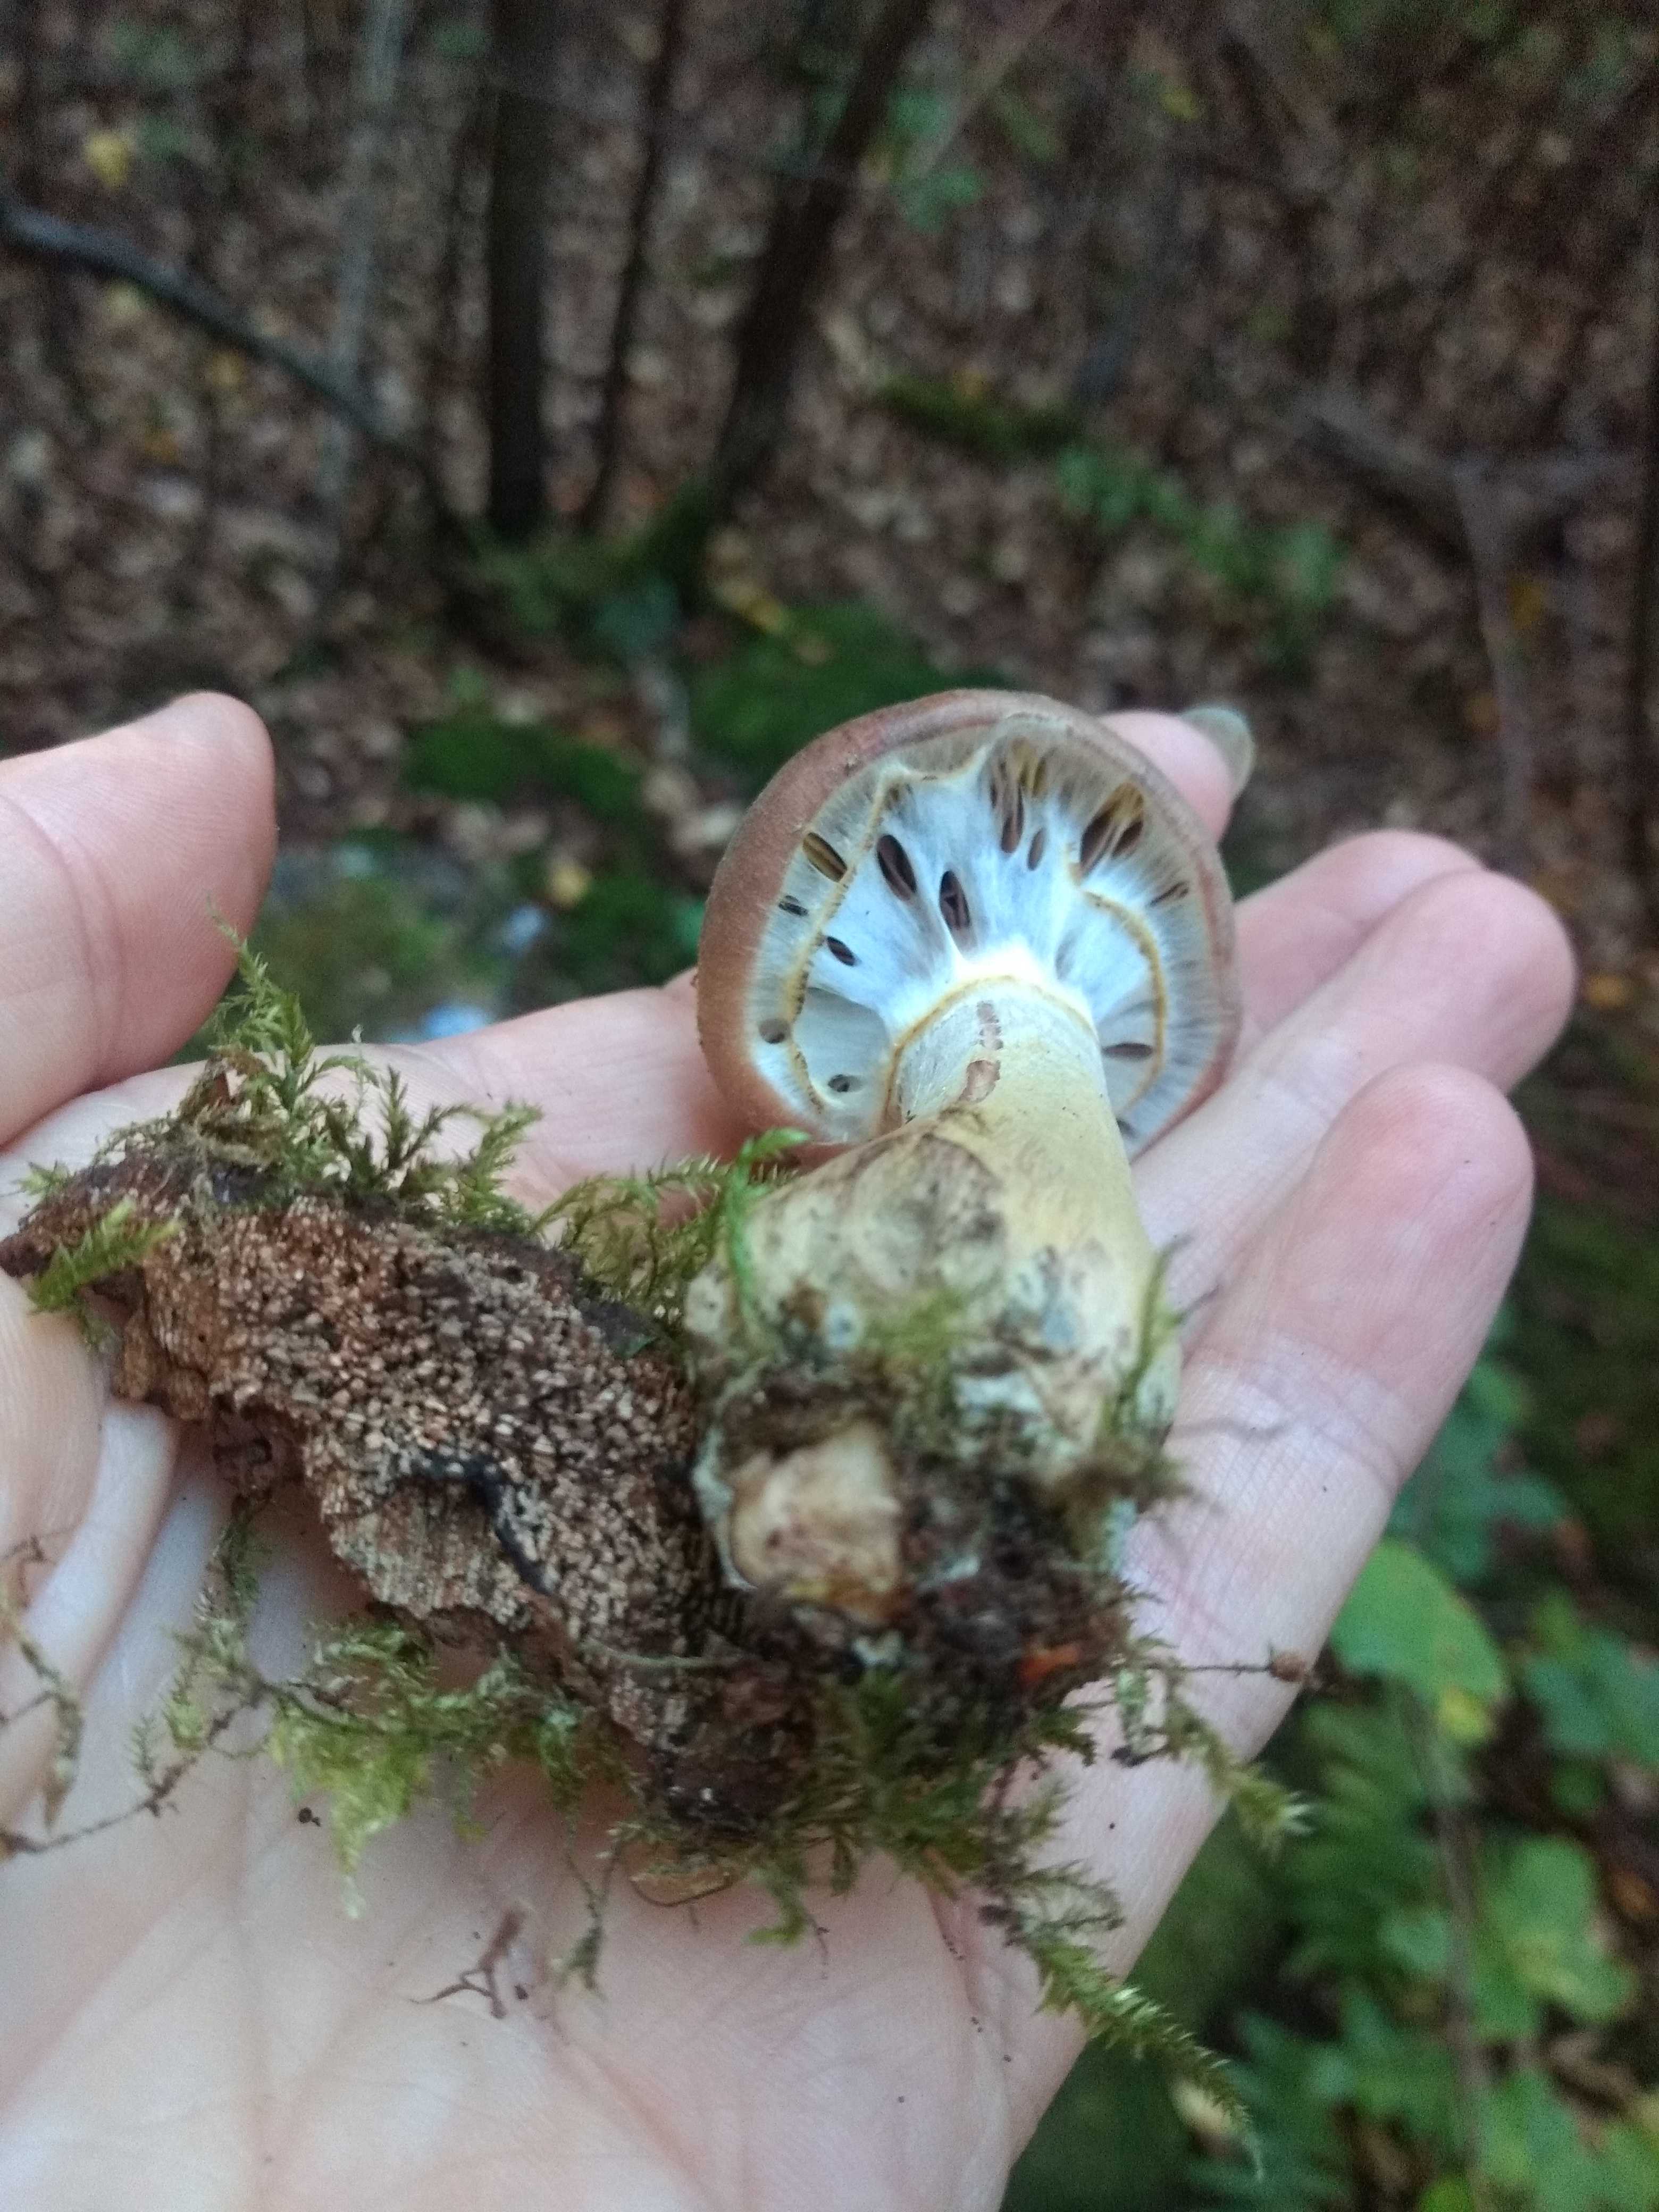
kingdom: Fungi
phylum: Basidiomycota
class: Agaricomycetes
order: Agaricales
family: Physalacriaceae
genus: Armillaria
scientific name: Armillaria
